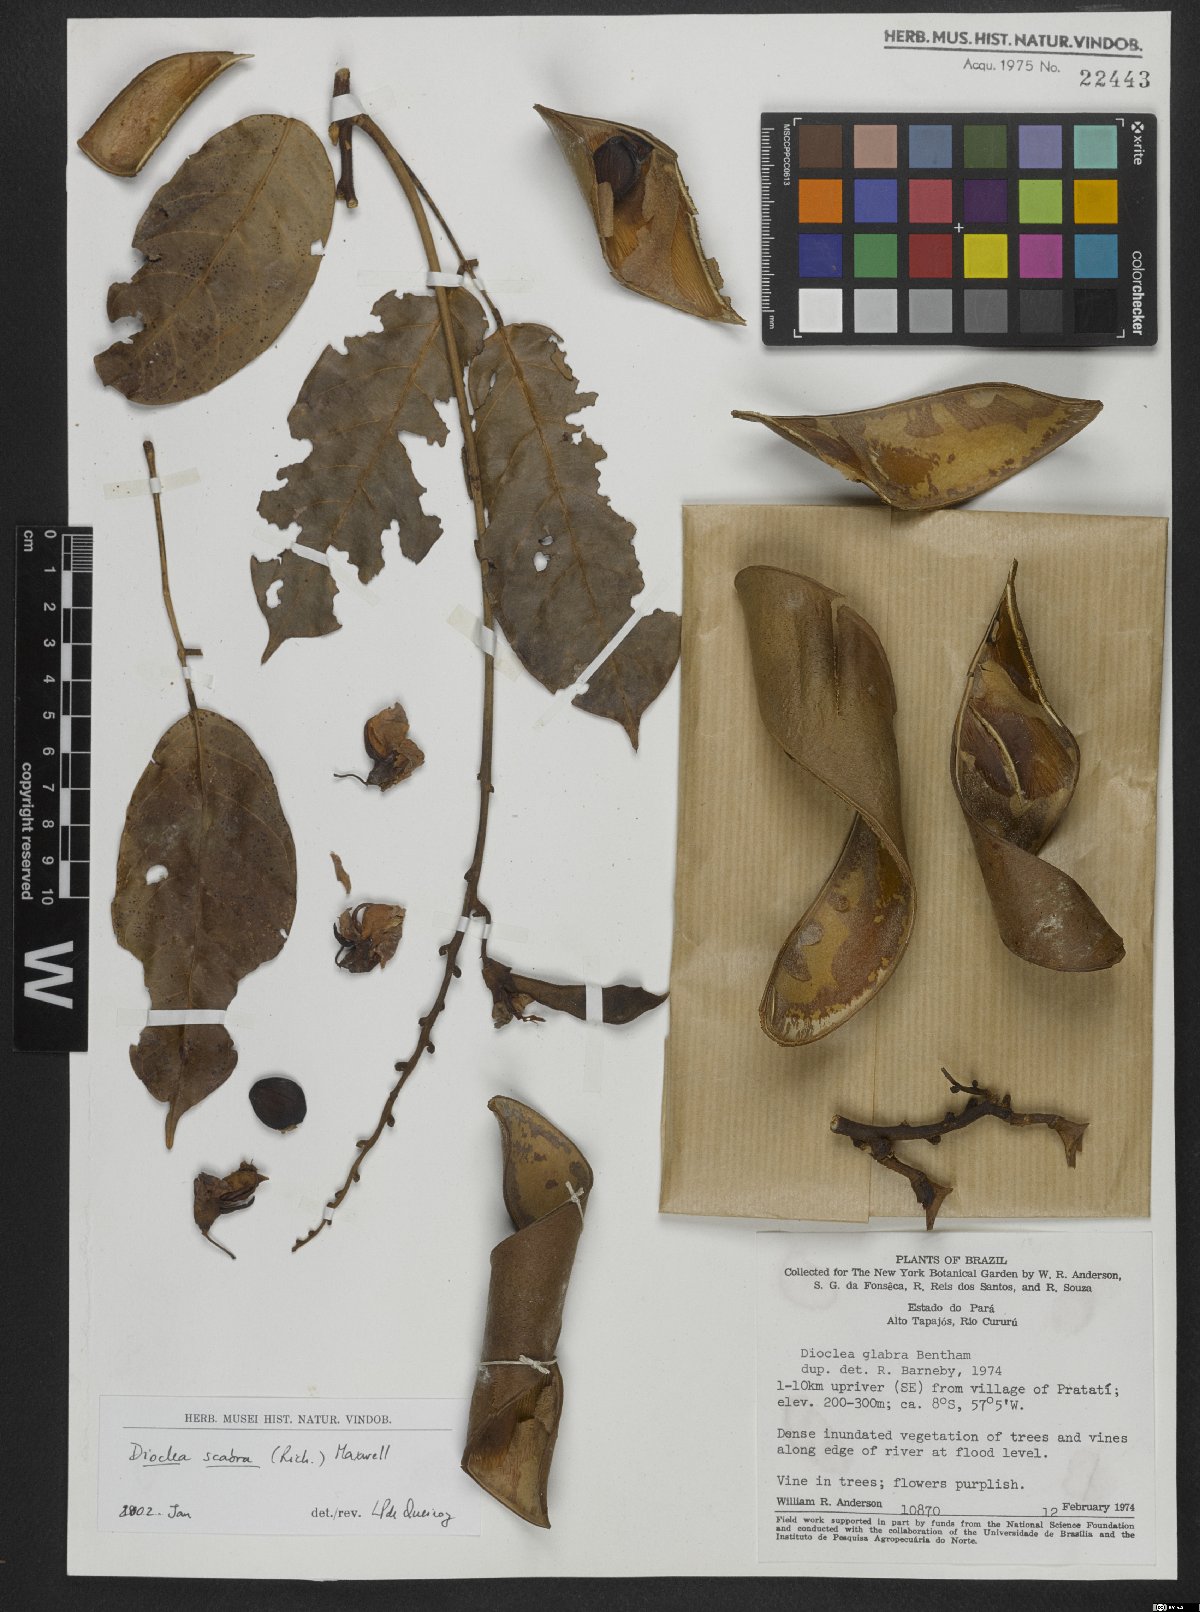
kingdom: Plantae
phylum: Tracheophyta
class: Magnoliopsida
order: Fabales
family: Fabaceae
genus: Macropsychanthus
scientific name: Macropsychanthus scaber
